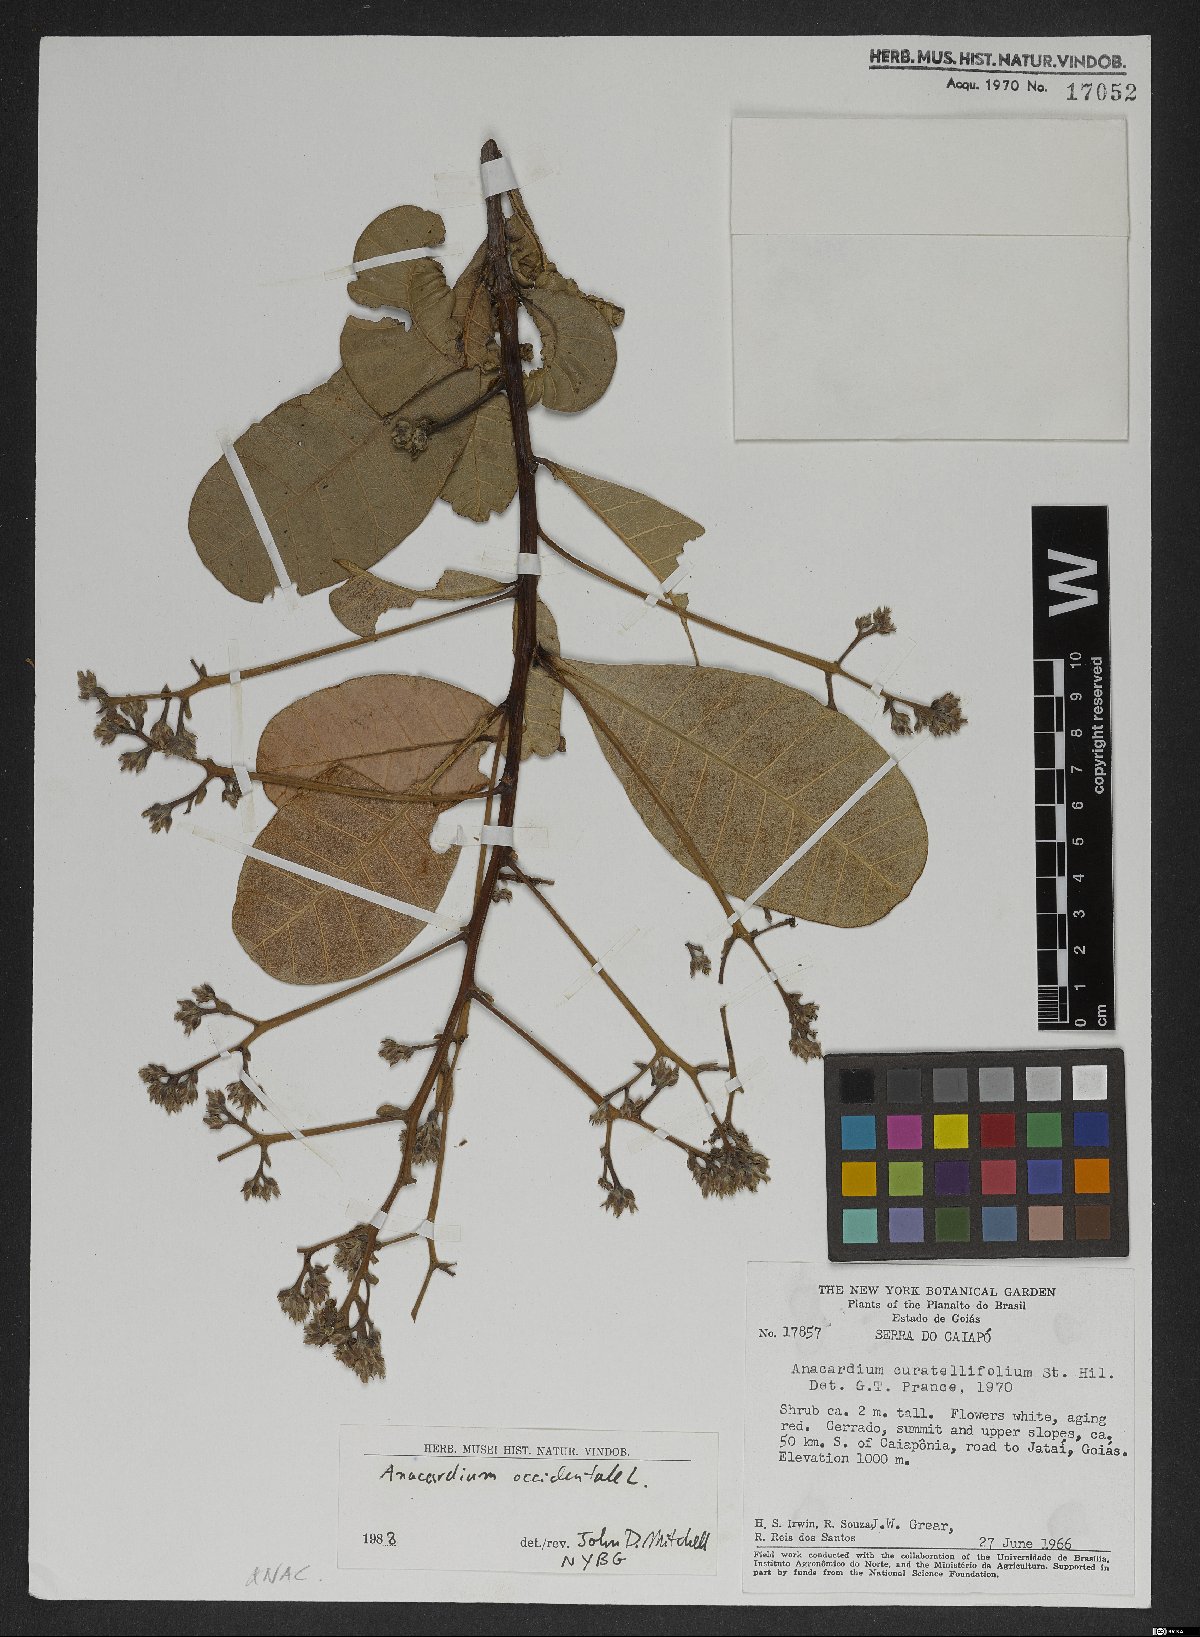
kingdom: Plantae
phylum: Tracheophyta
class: Magnoliopsida
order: Sapindales
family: Anacardiaceae
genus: Anacardium
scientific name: Anacardium occidentale
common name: Cashew
